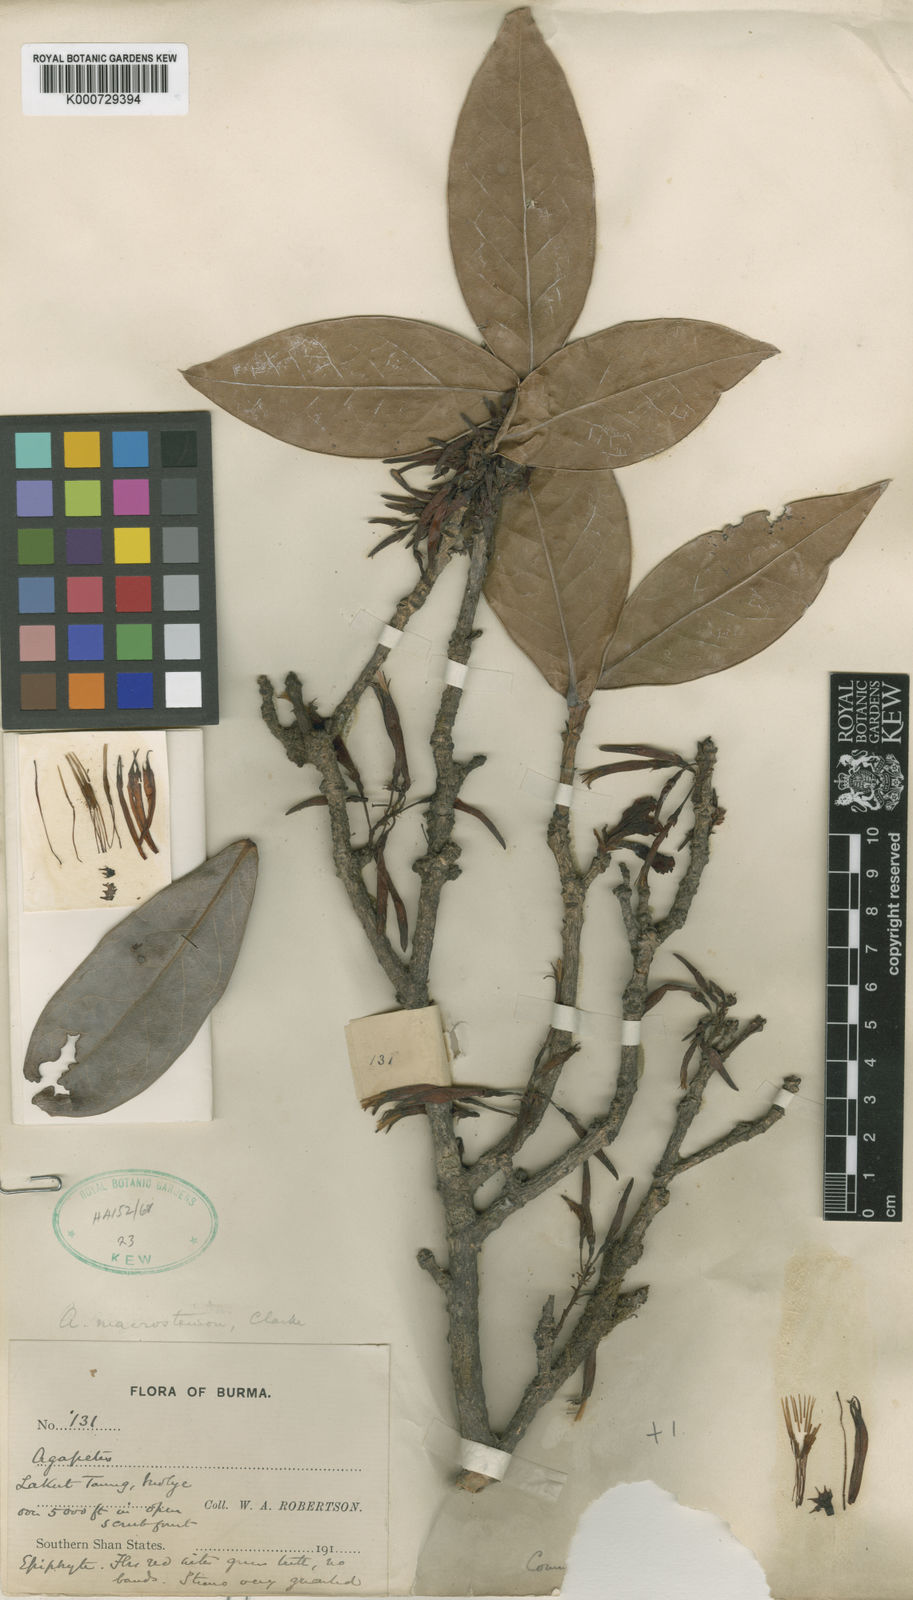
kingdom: Plantae
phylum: Tracheophyta
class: Magnoliopsida
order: Ericales
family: Ericaceae
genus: Agapetes
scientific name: Agapetes macrostemon
